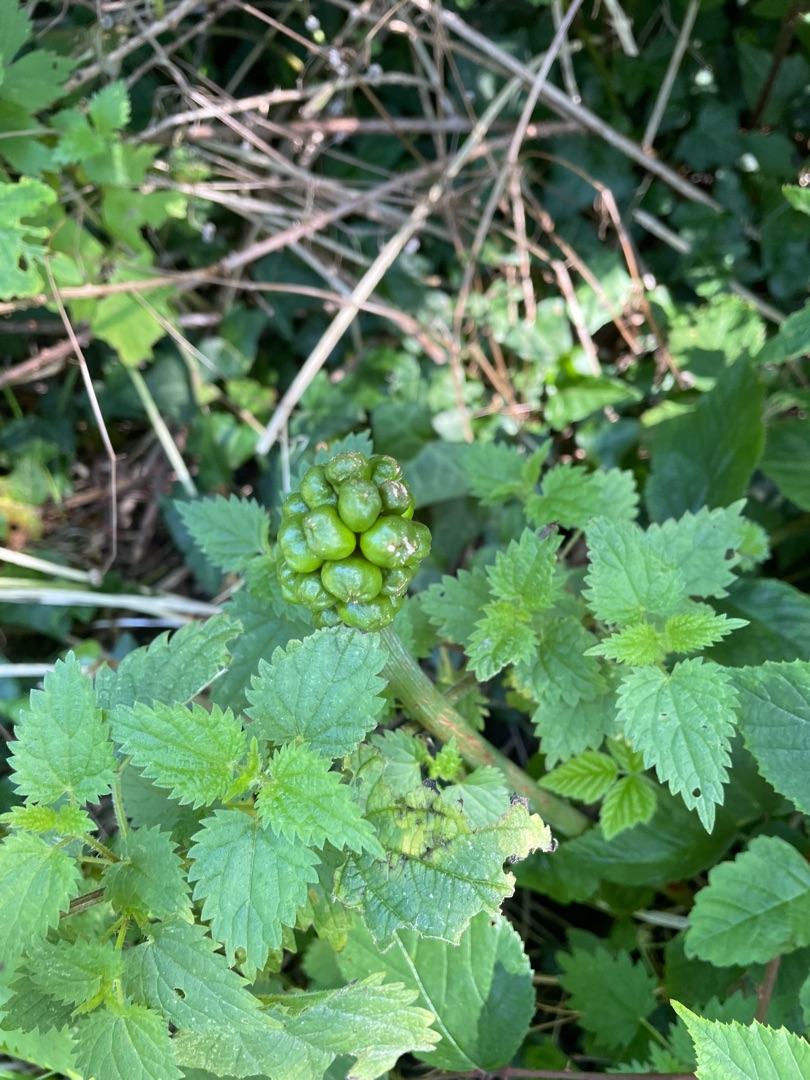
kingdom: Plantae
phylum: Tracheophyta
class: Liliopsida
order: Alismatales
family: Araceae
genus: Arum
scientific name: Arum
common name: Arumslægten
